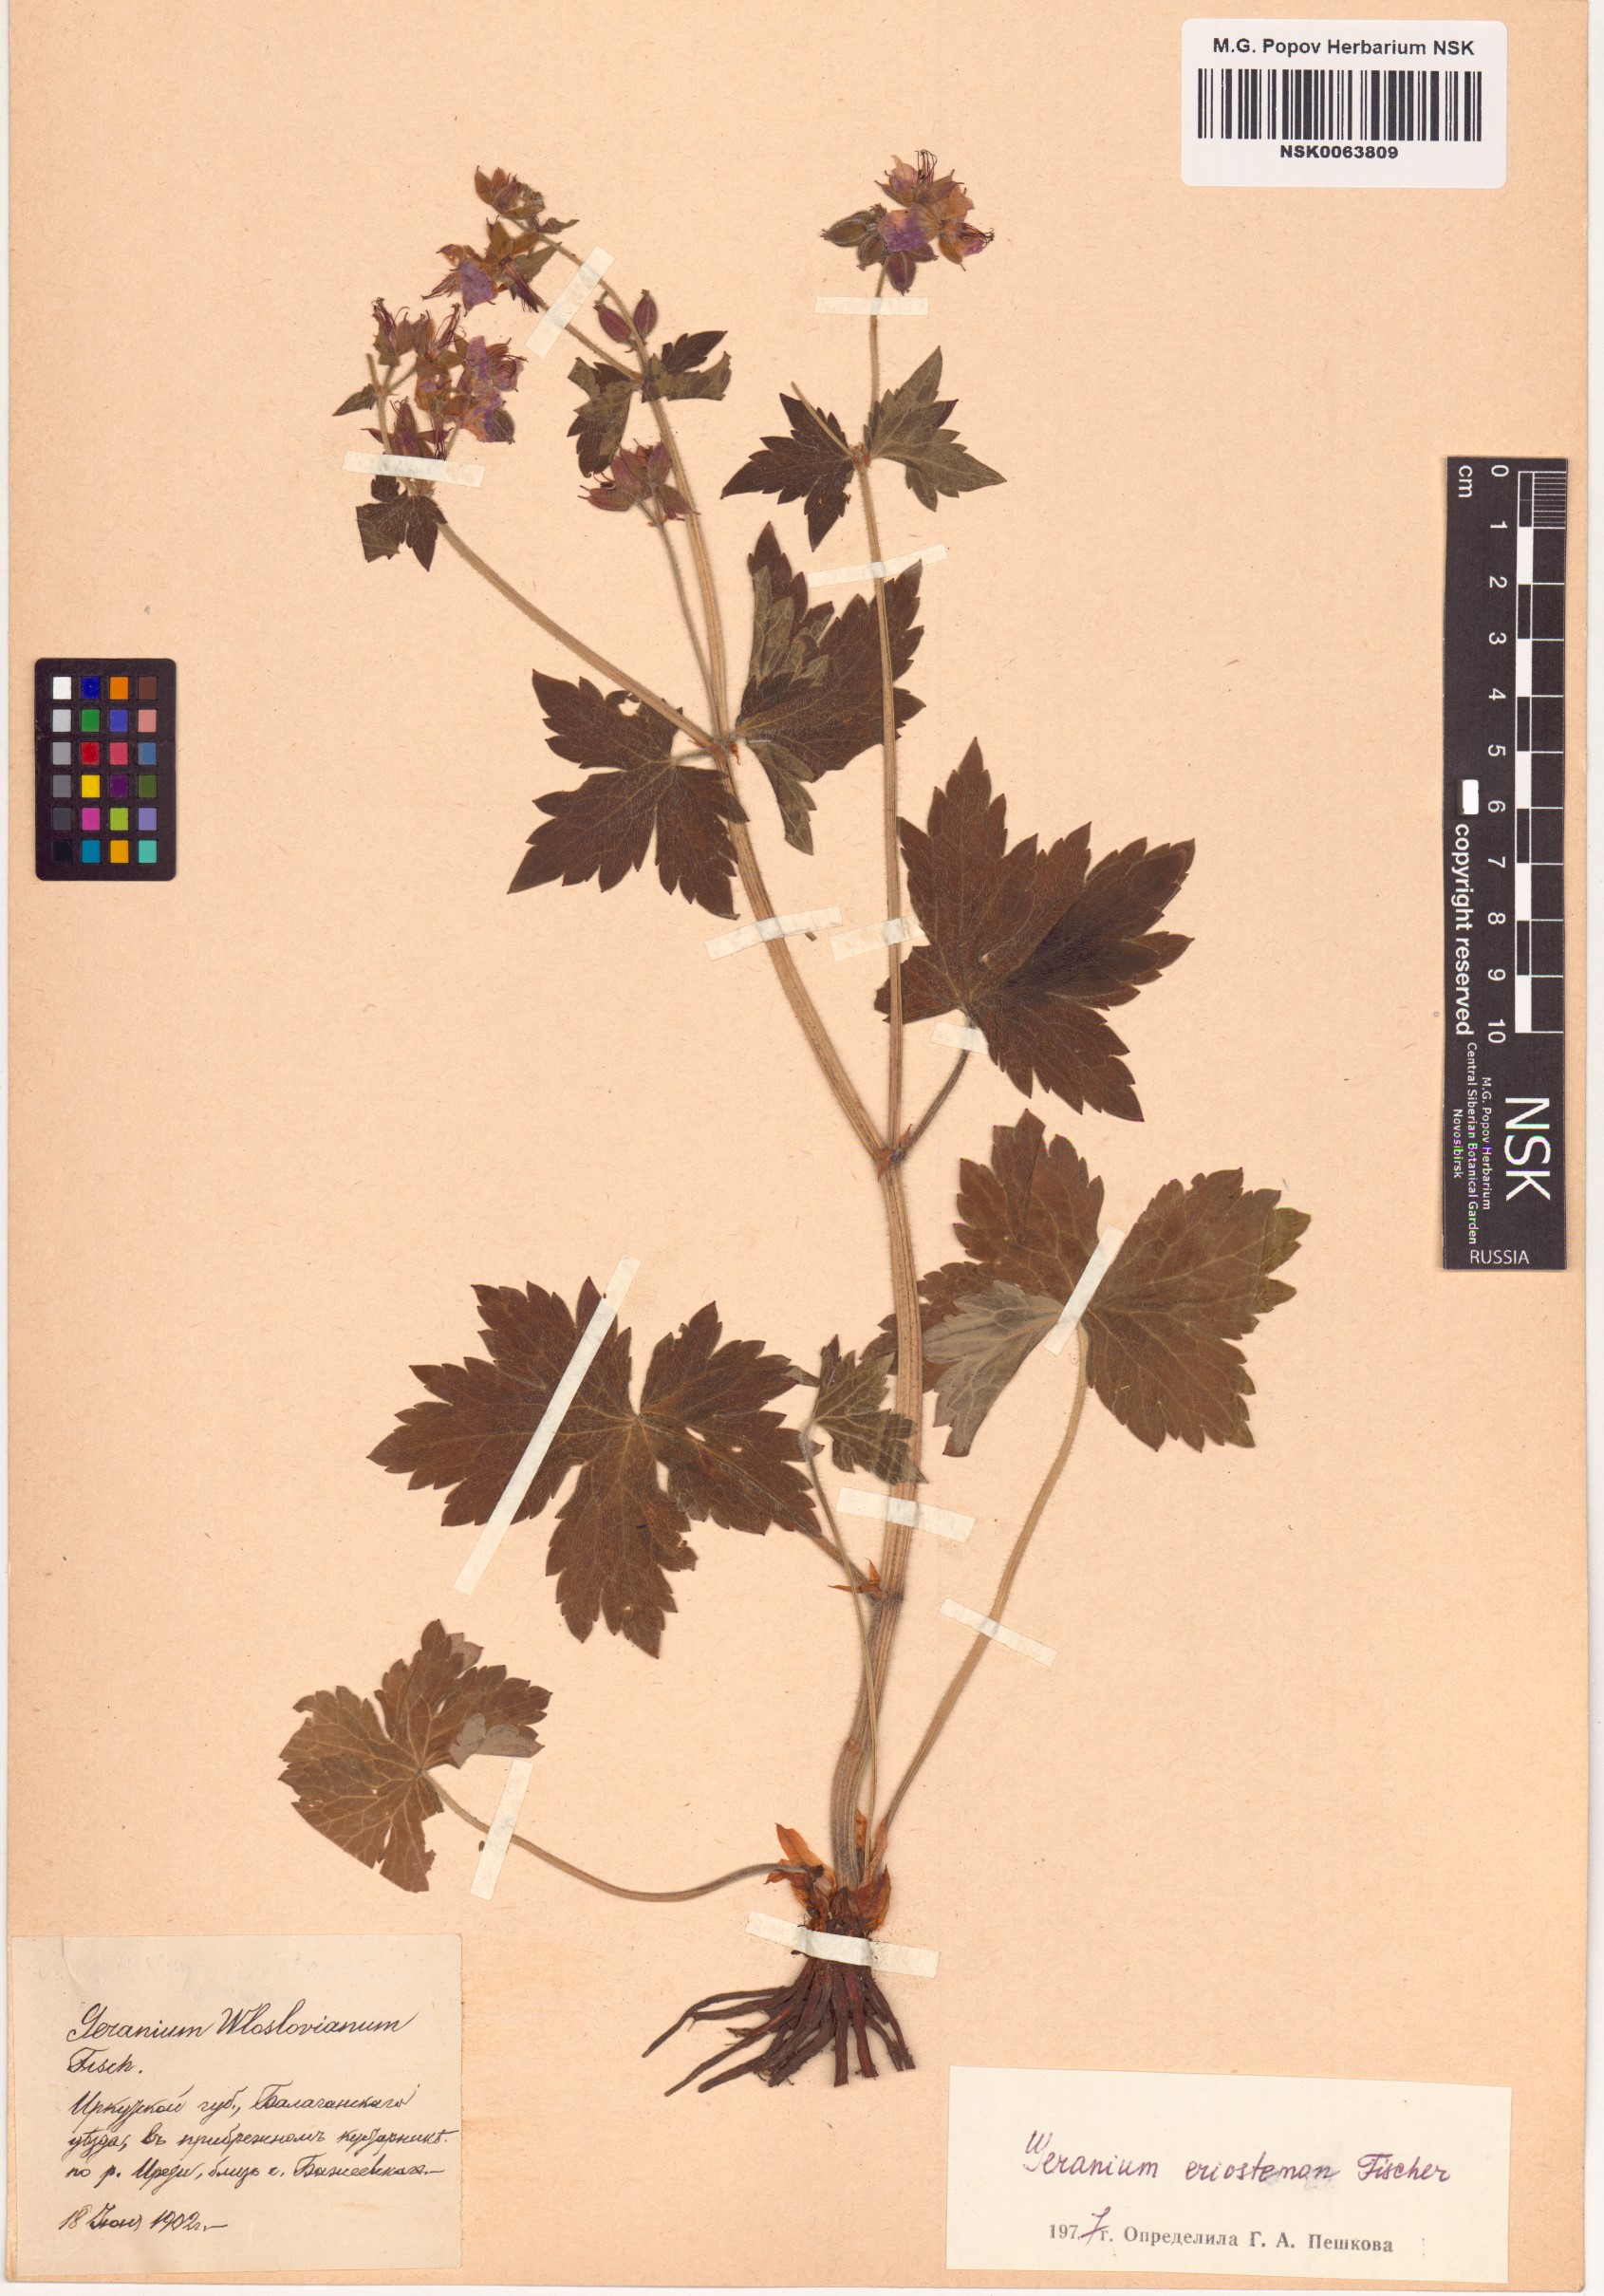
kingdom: Plantae
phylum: Tracheophyta
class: Magnoliopsida
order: Geraniales
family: Geraniaceae
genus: Geranium
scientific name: Geranium platyanthum
